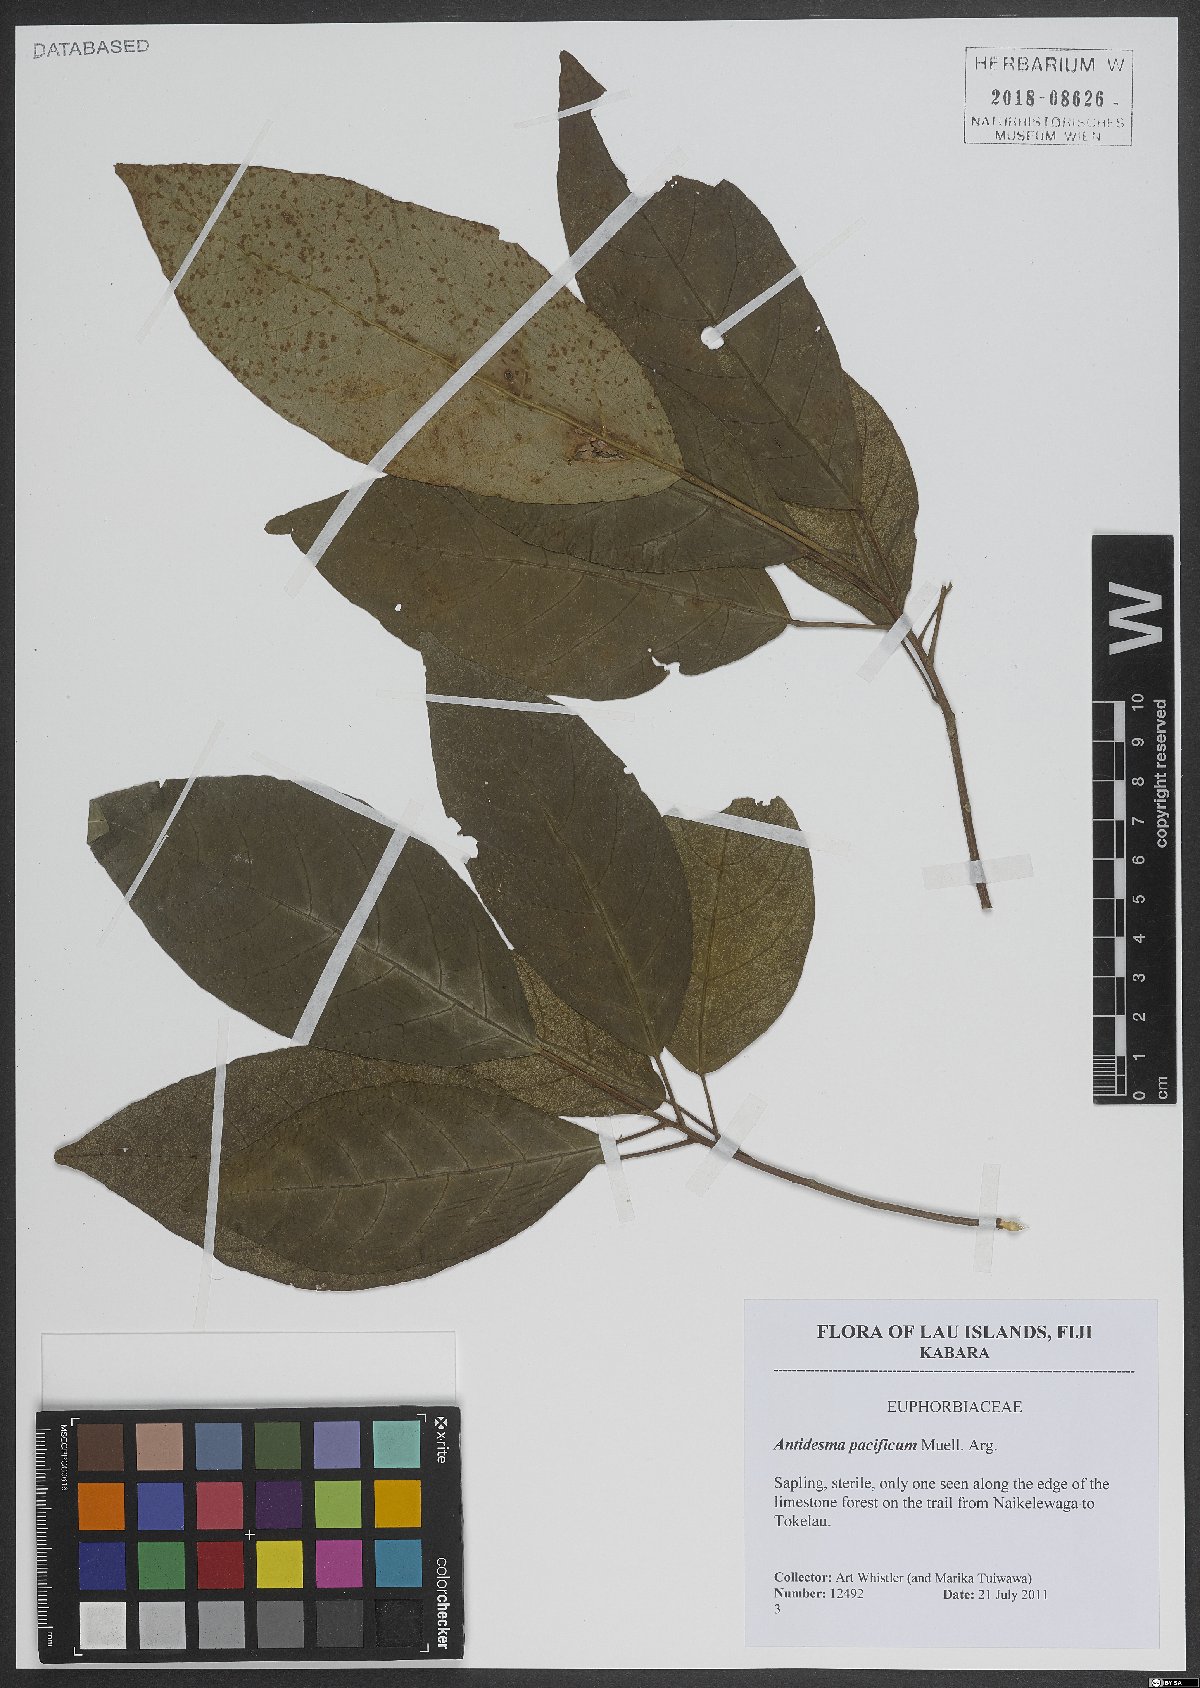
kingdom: Plantae
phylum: Tracheophyta
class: Magnoliopsida
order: Malpighiales
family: Phyllanthaceae
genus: Antidesma
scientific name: Antidesma pacificum
